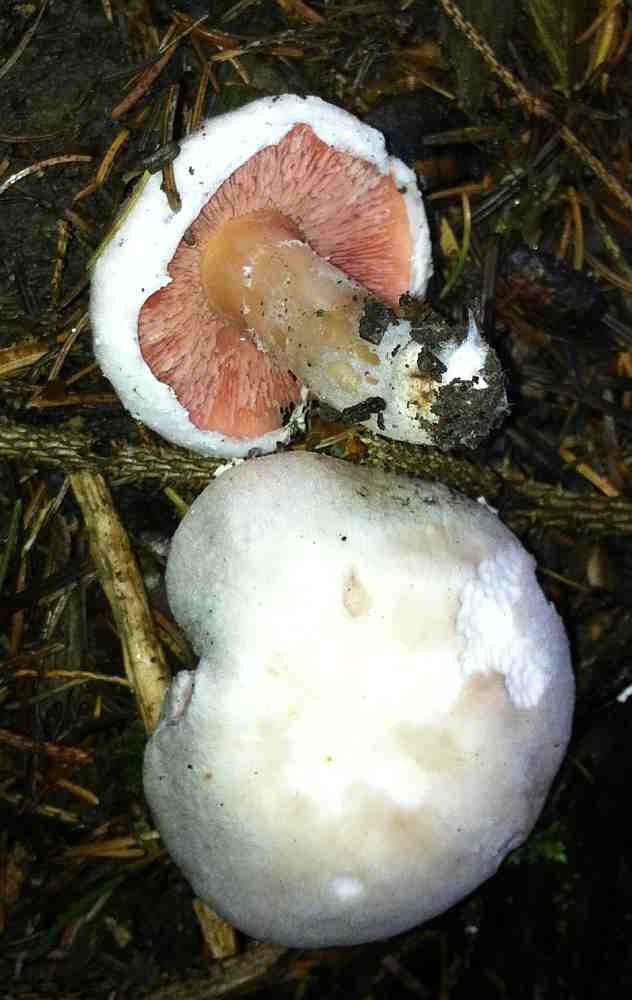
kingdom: Fungi
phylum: Basidiomycota
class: Agaricomycetes
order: Agaricales
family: Agaricaceae
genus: Agaricus
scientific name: Agaricus altipes
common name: sommer-champignon
